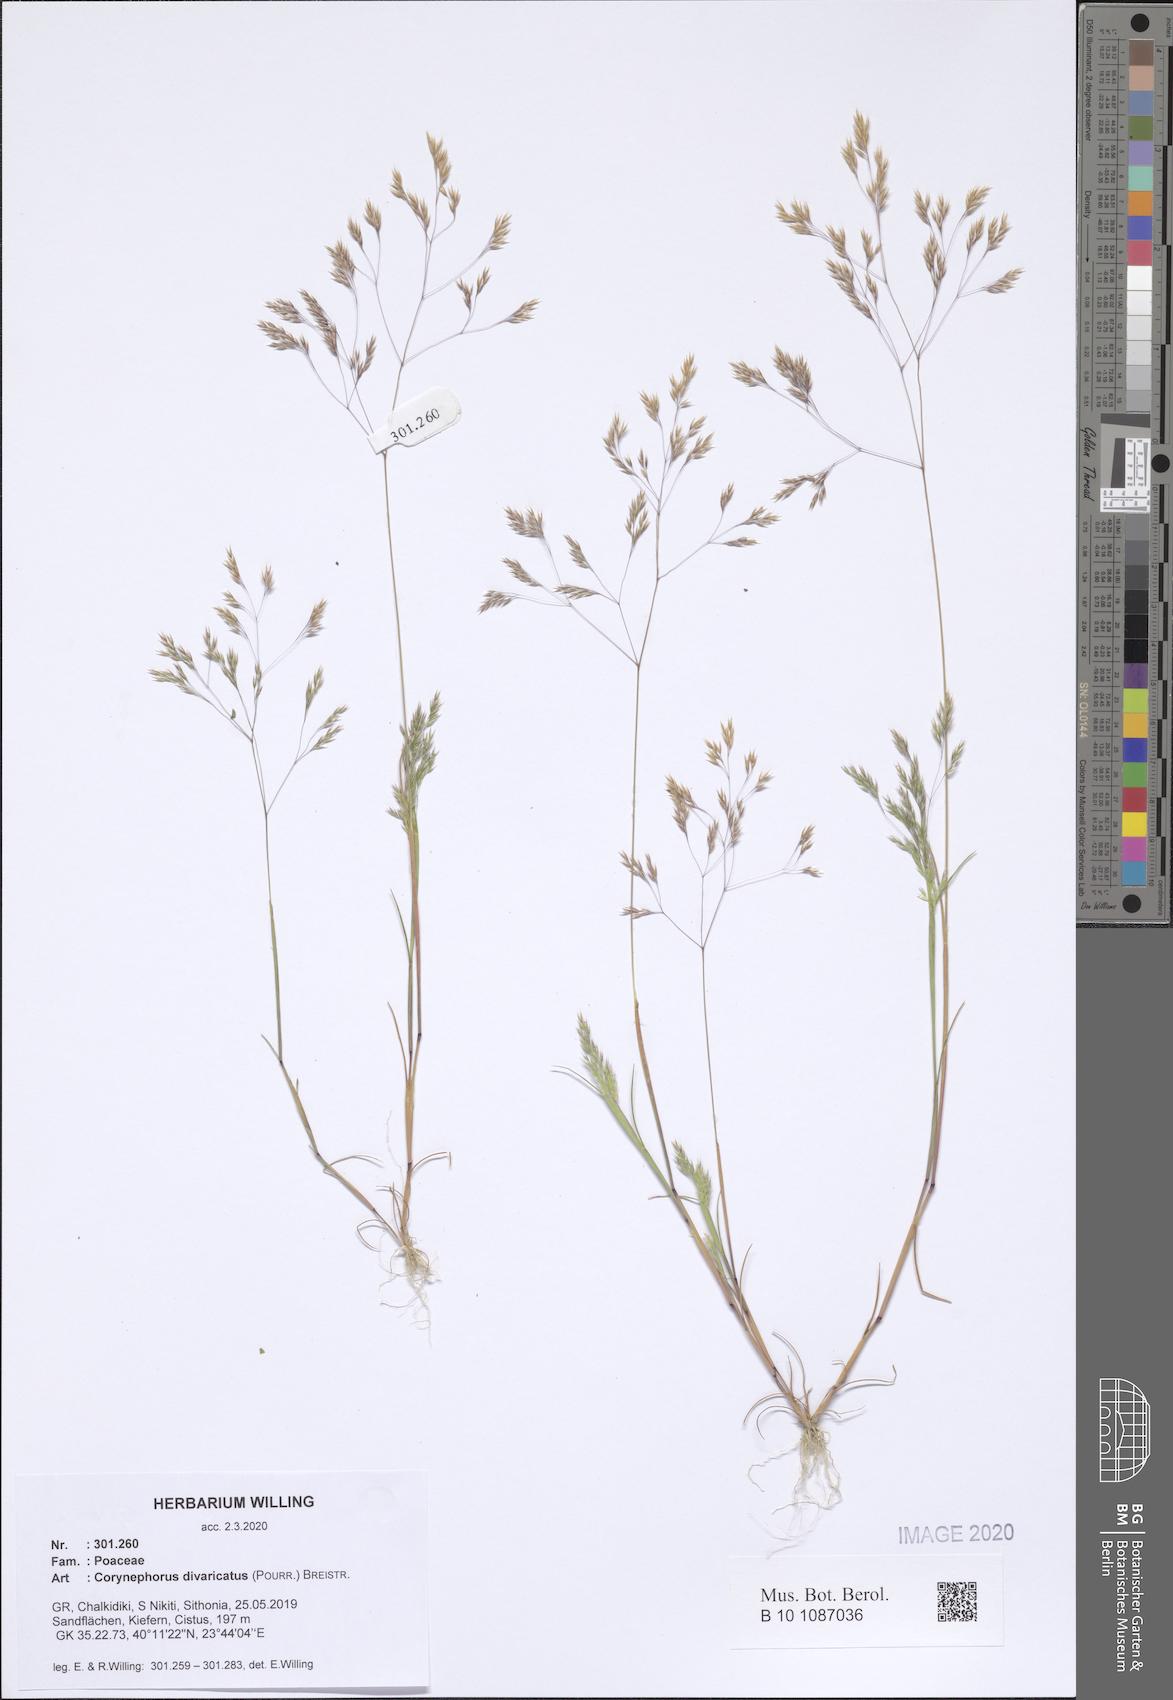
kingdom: Plantae
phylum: Tracheophyta
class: Liliopsida
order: Poales
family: Poaceae
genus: Corynephorus
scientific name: Corynephorus divaricatus
